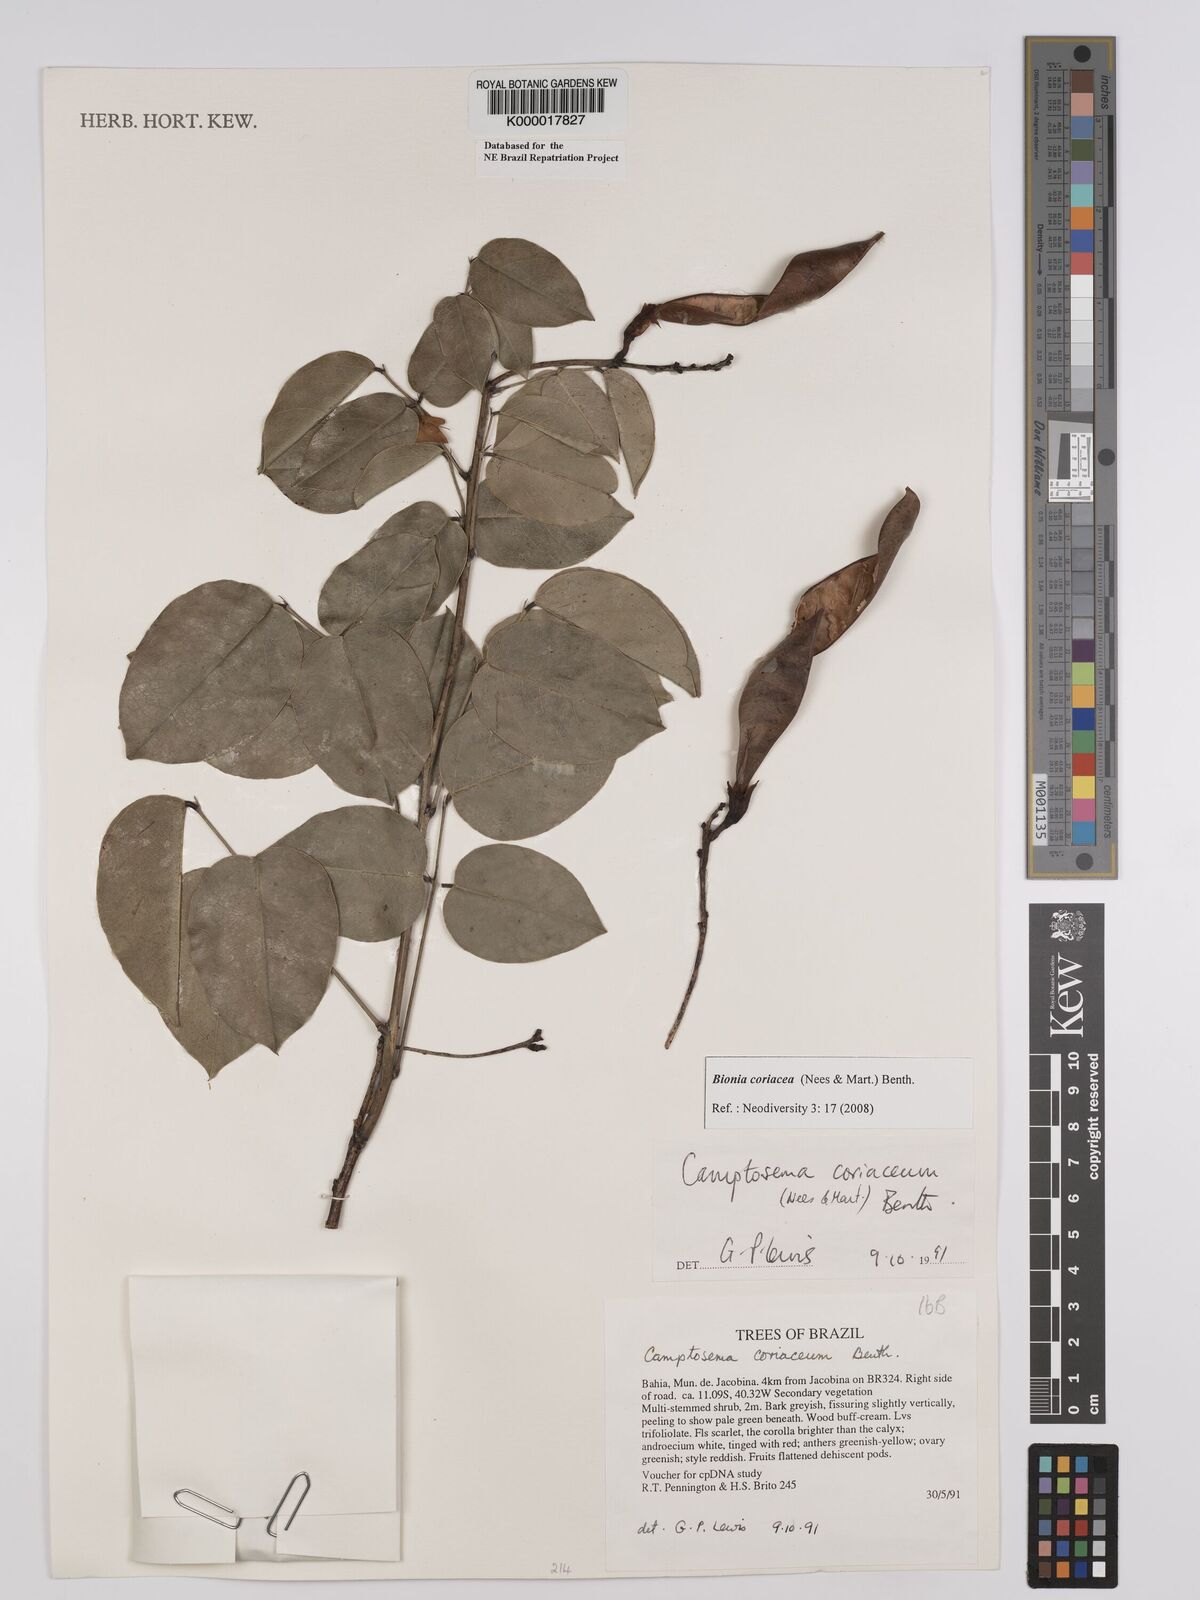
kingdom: Plantae
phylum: Tracheophyta
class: Magnoliopsida
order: Fabales
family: Fabaceae
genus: Camptosema
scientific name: Camptosema coriaceum
